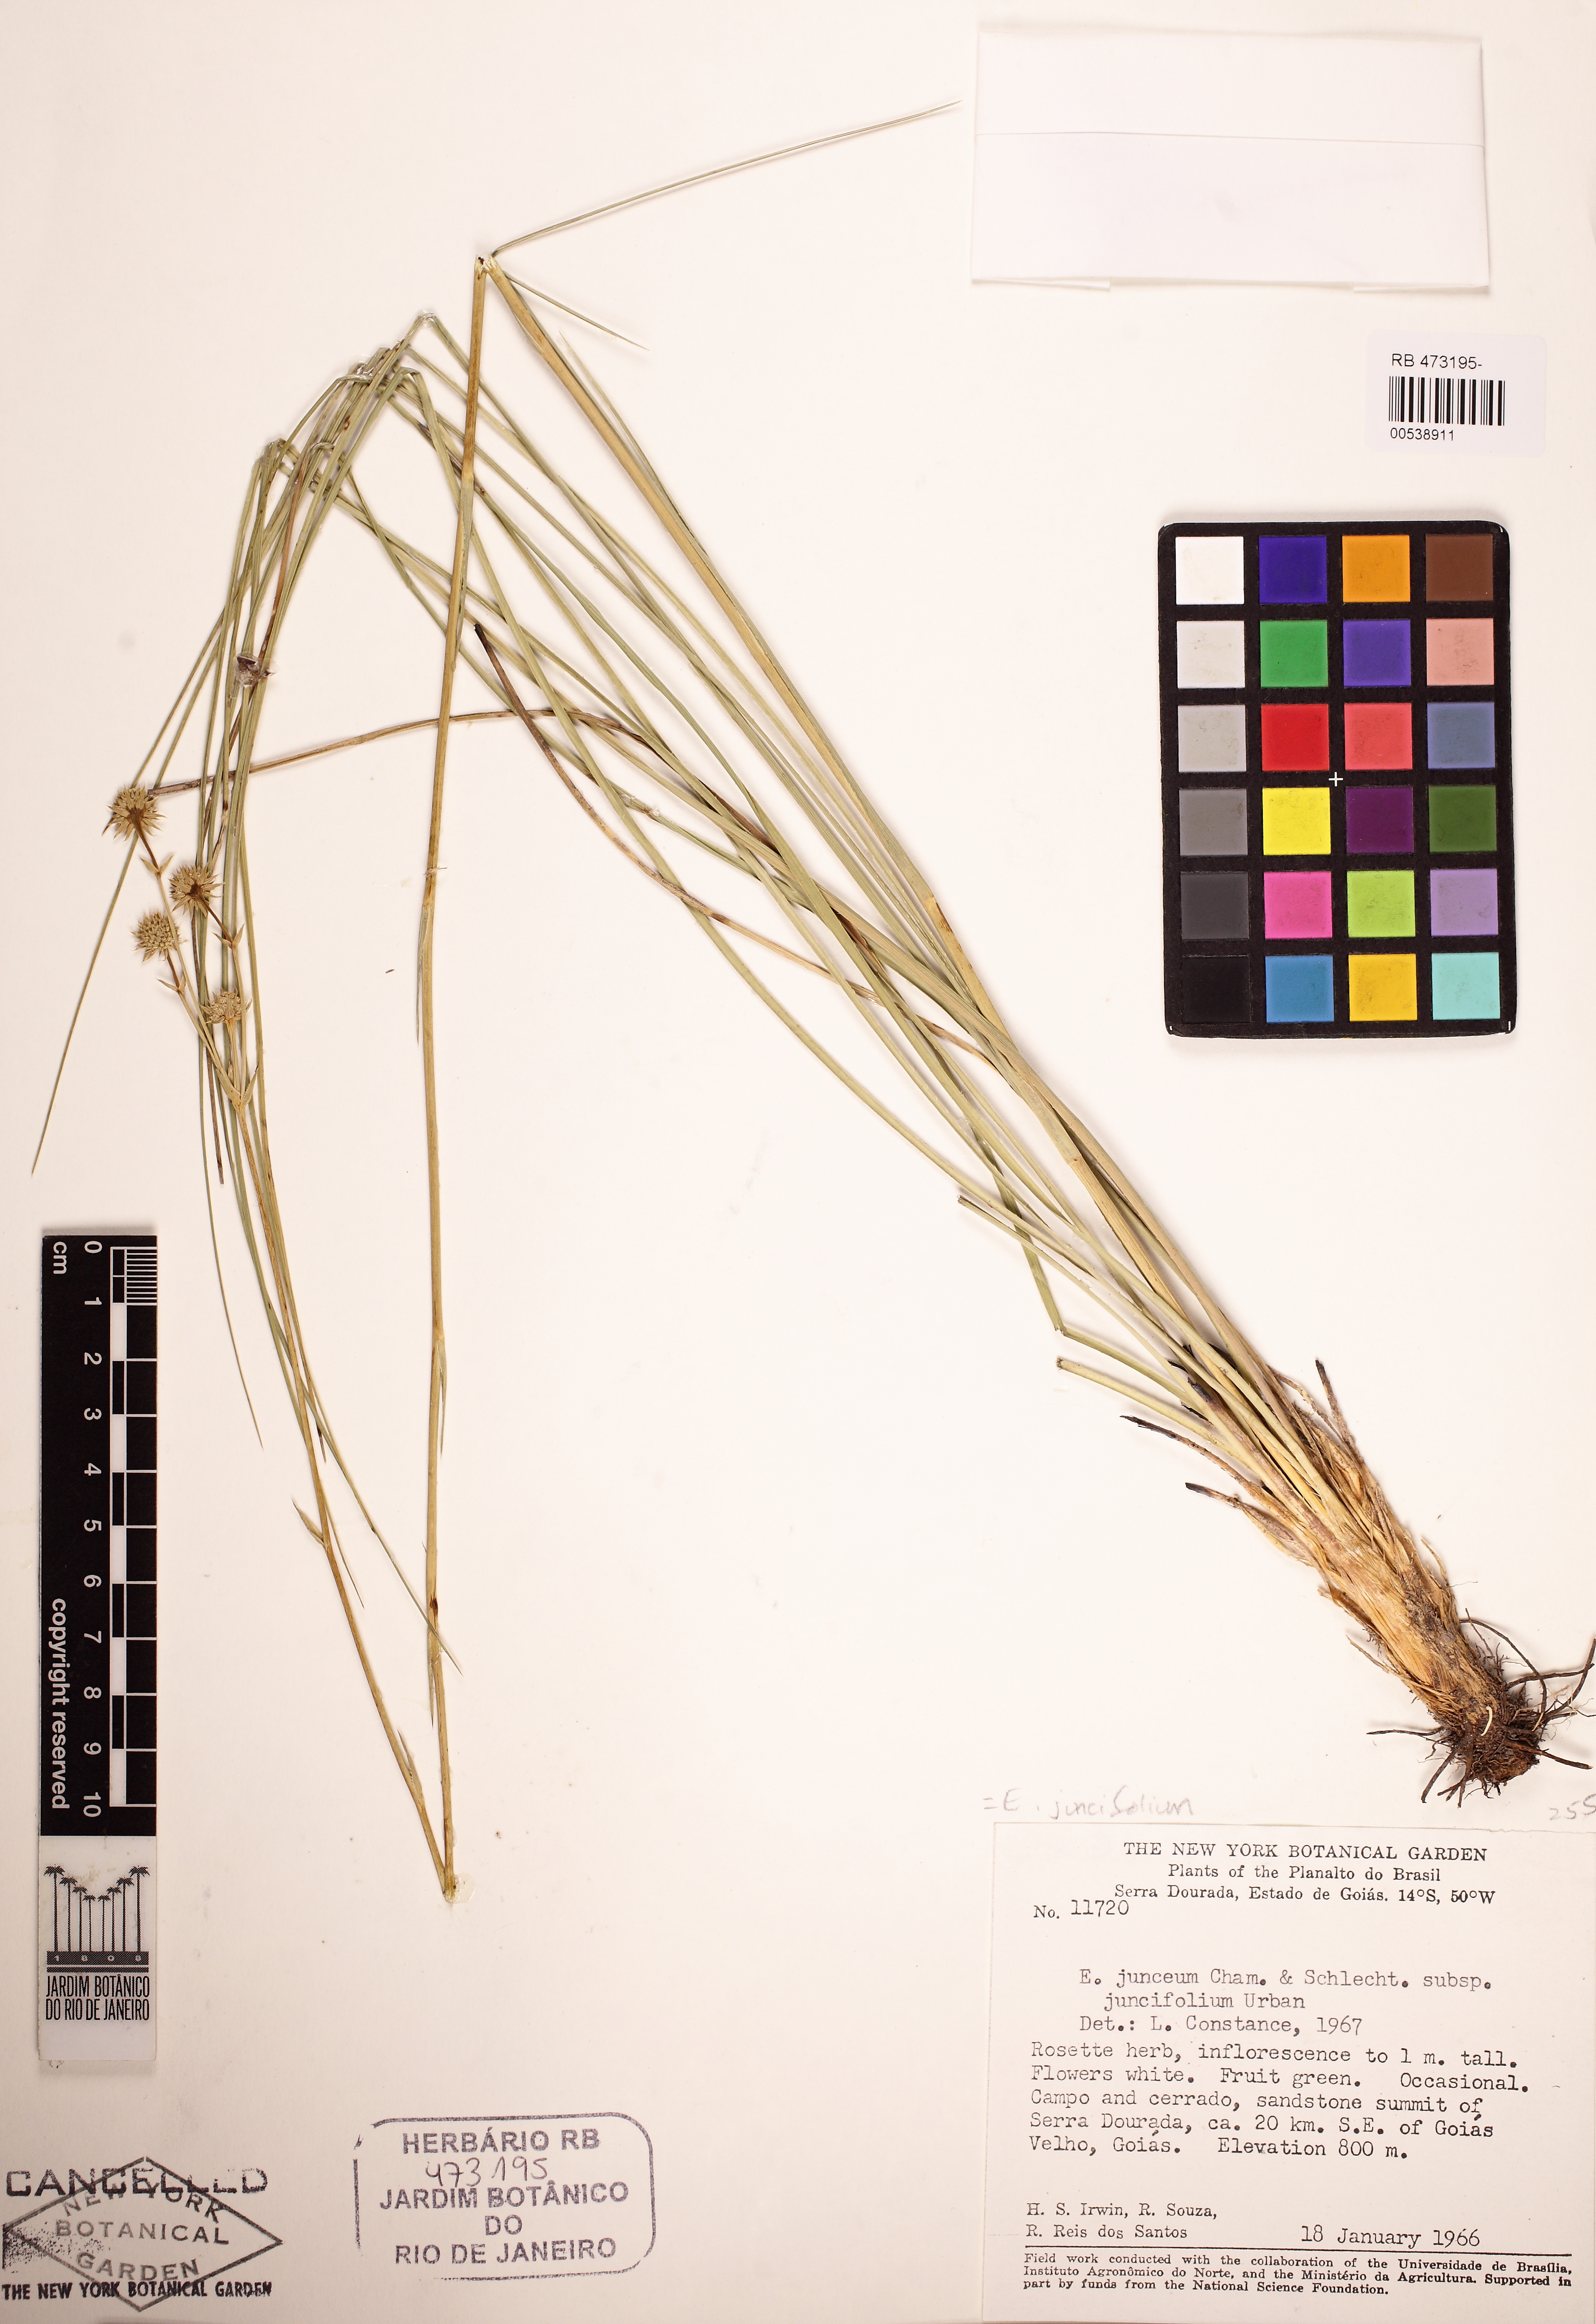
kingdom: Plantae
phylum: Tracheophyta
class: Magnoliopsida
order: Apiales
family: Apiaceae
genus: Eryngium
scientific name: Eryngium juncifolium
